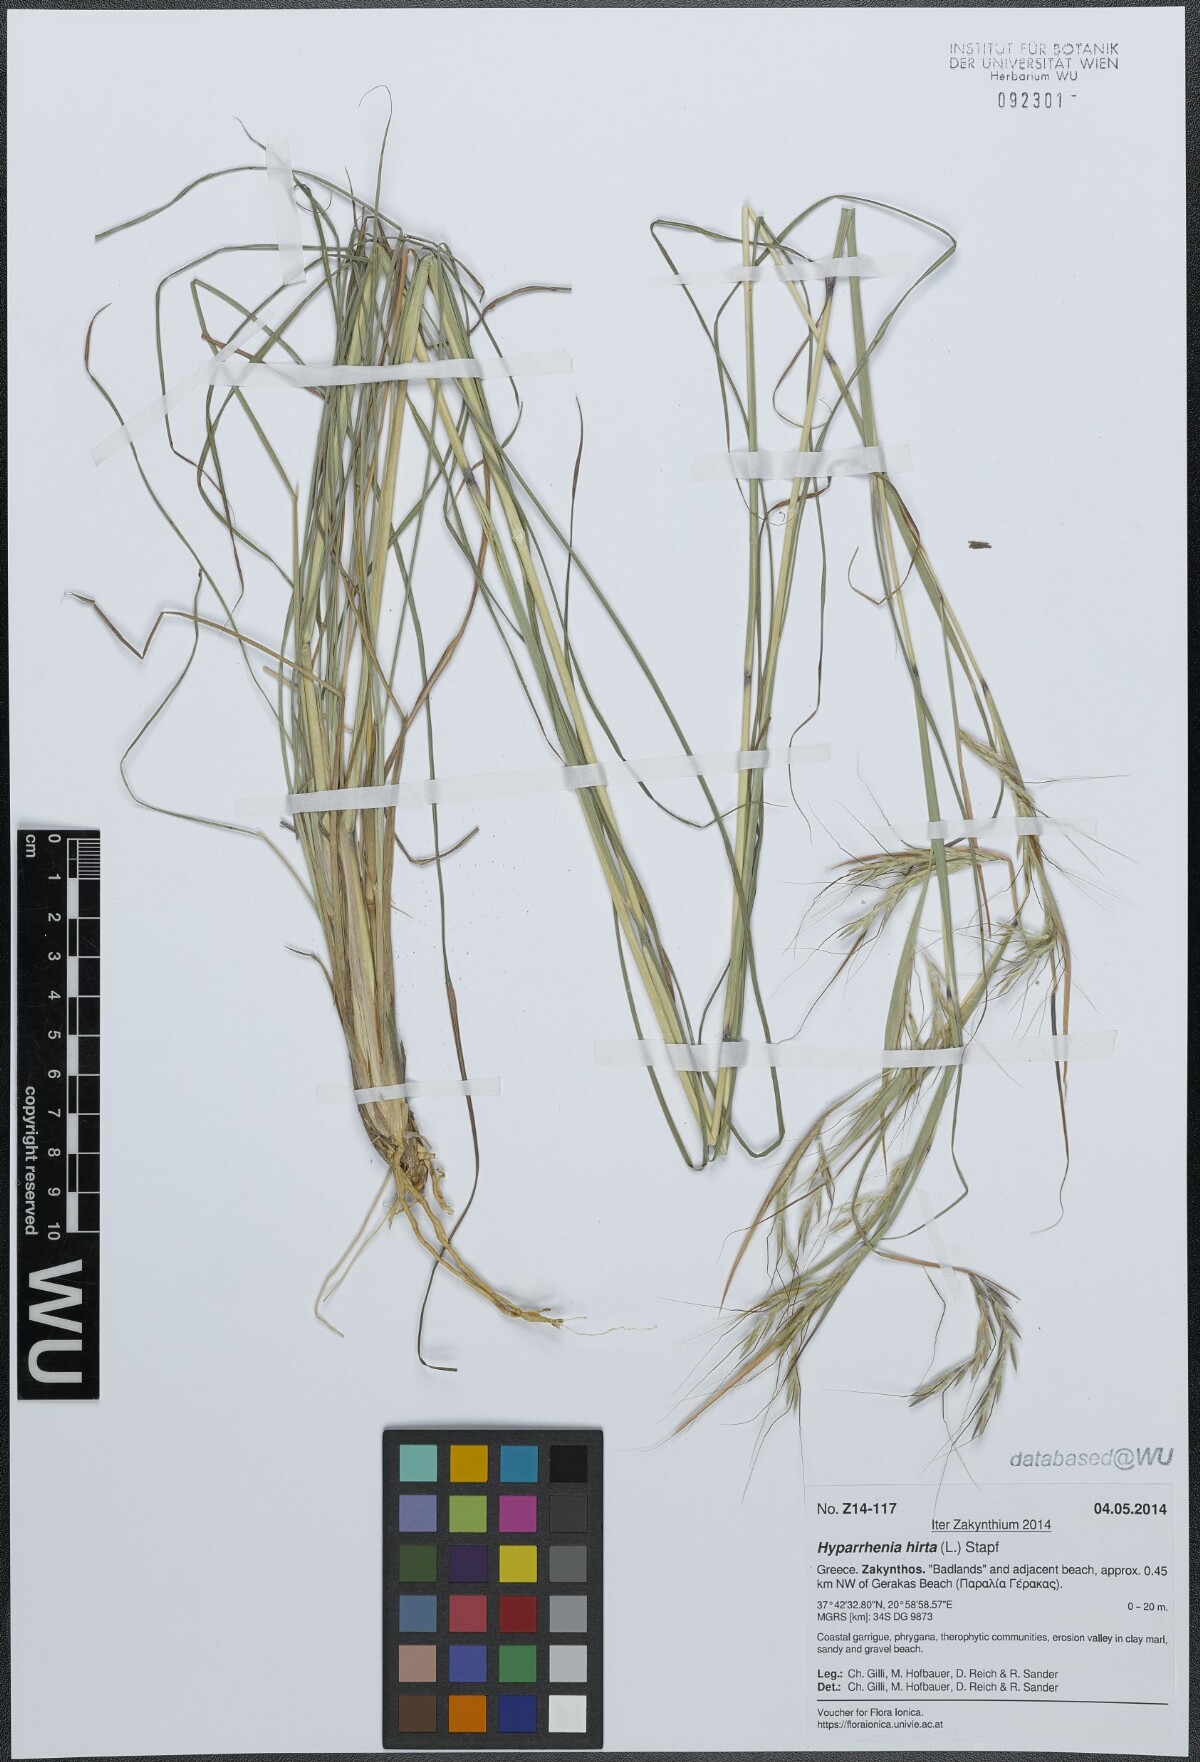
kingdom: Plantae
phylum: Tracheophyta
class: Liliopsida
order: Poales
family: Poaceae
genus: Hyparrhenia
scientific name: Hyparrhenia hirta
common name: Thatching grass
